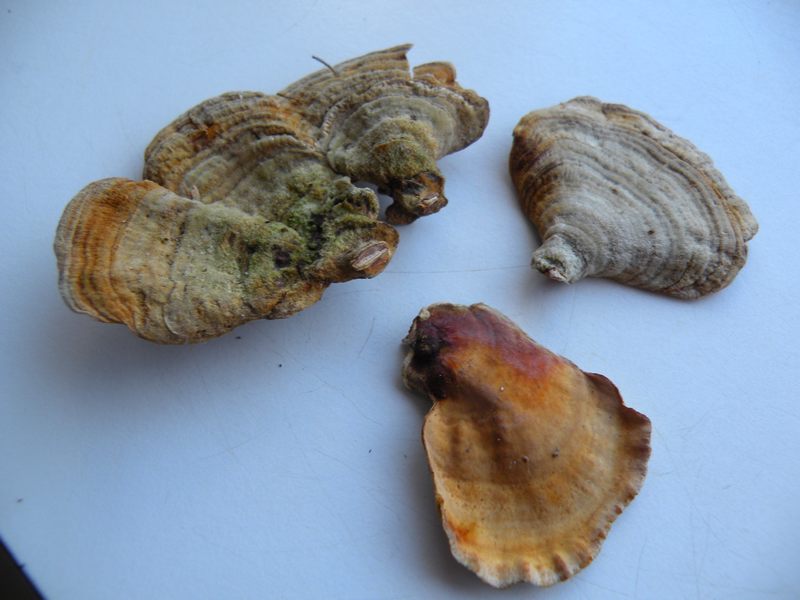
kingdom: Fungi
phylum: Basidiomycota
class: Agaricomycetes
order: Russulales
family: Stereaceae
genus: Stereum
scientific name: Stereum subtomentosum
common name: smuk lædersvamp
